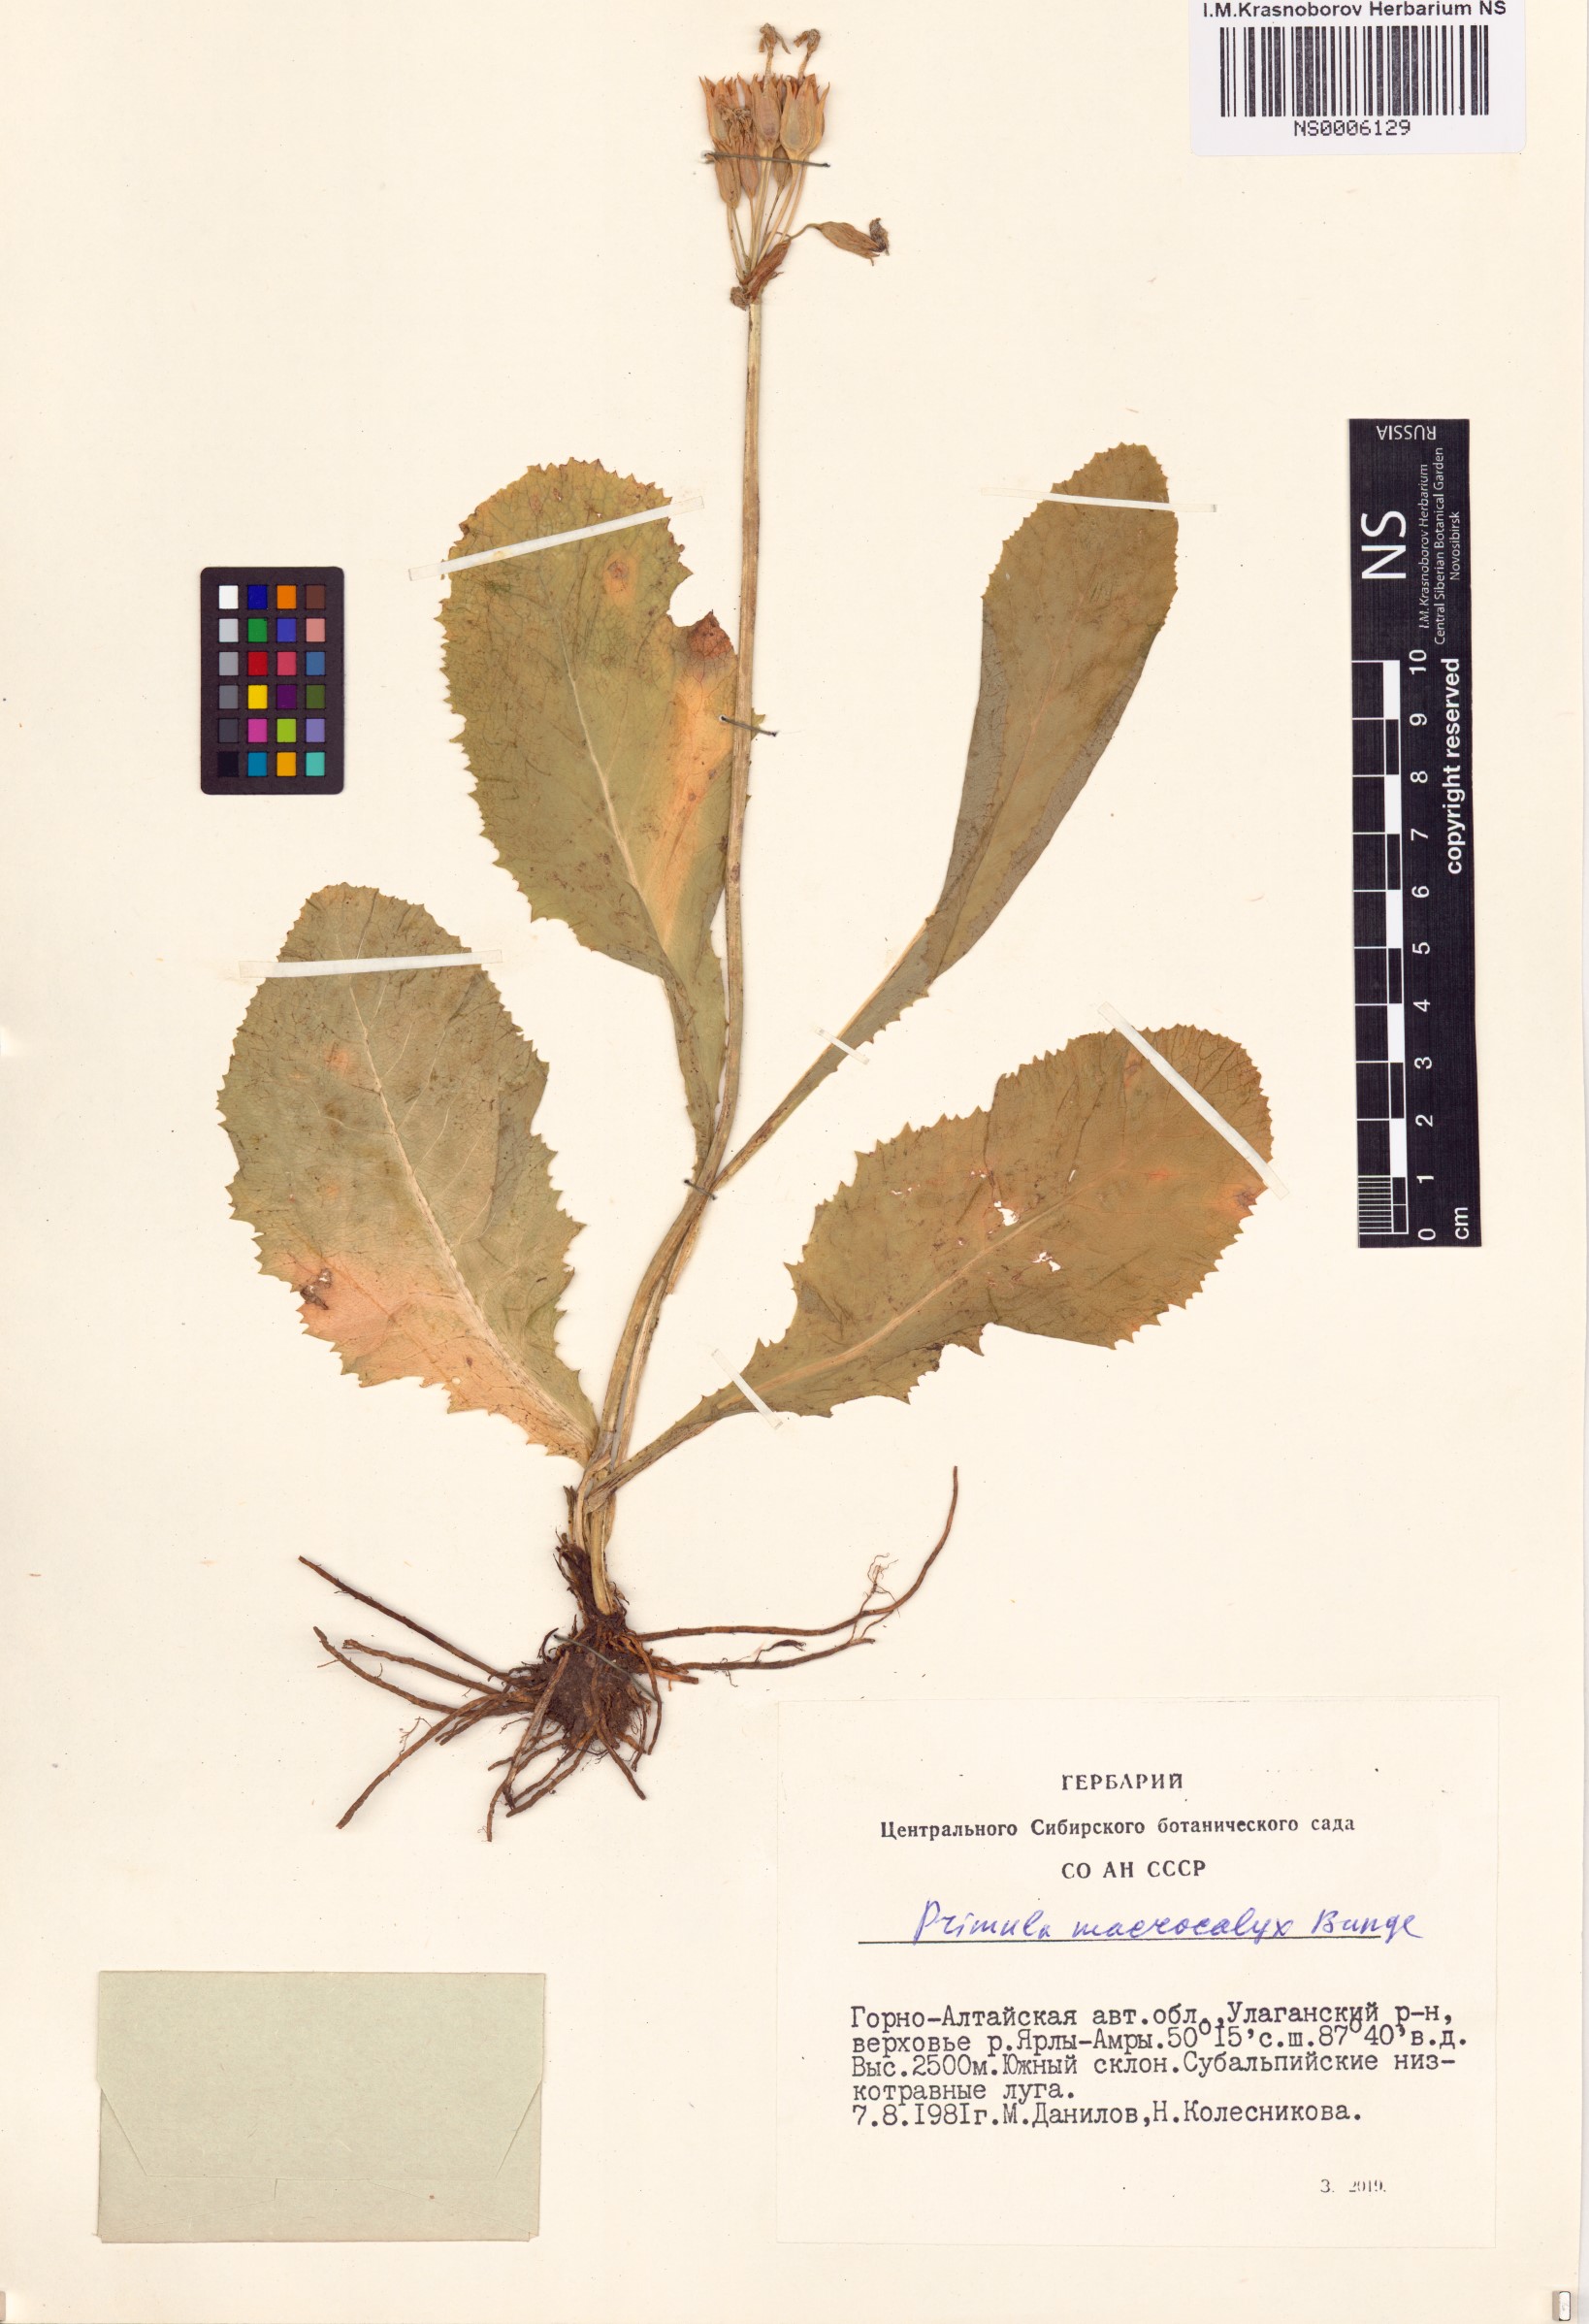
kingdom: Plantae
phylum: Tracheophyta
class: Magnoliopsida
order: Ericales
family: Primulaceae
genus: Primula
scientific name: Primula veris
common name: Cowslip
